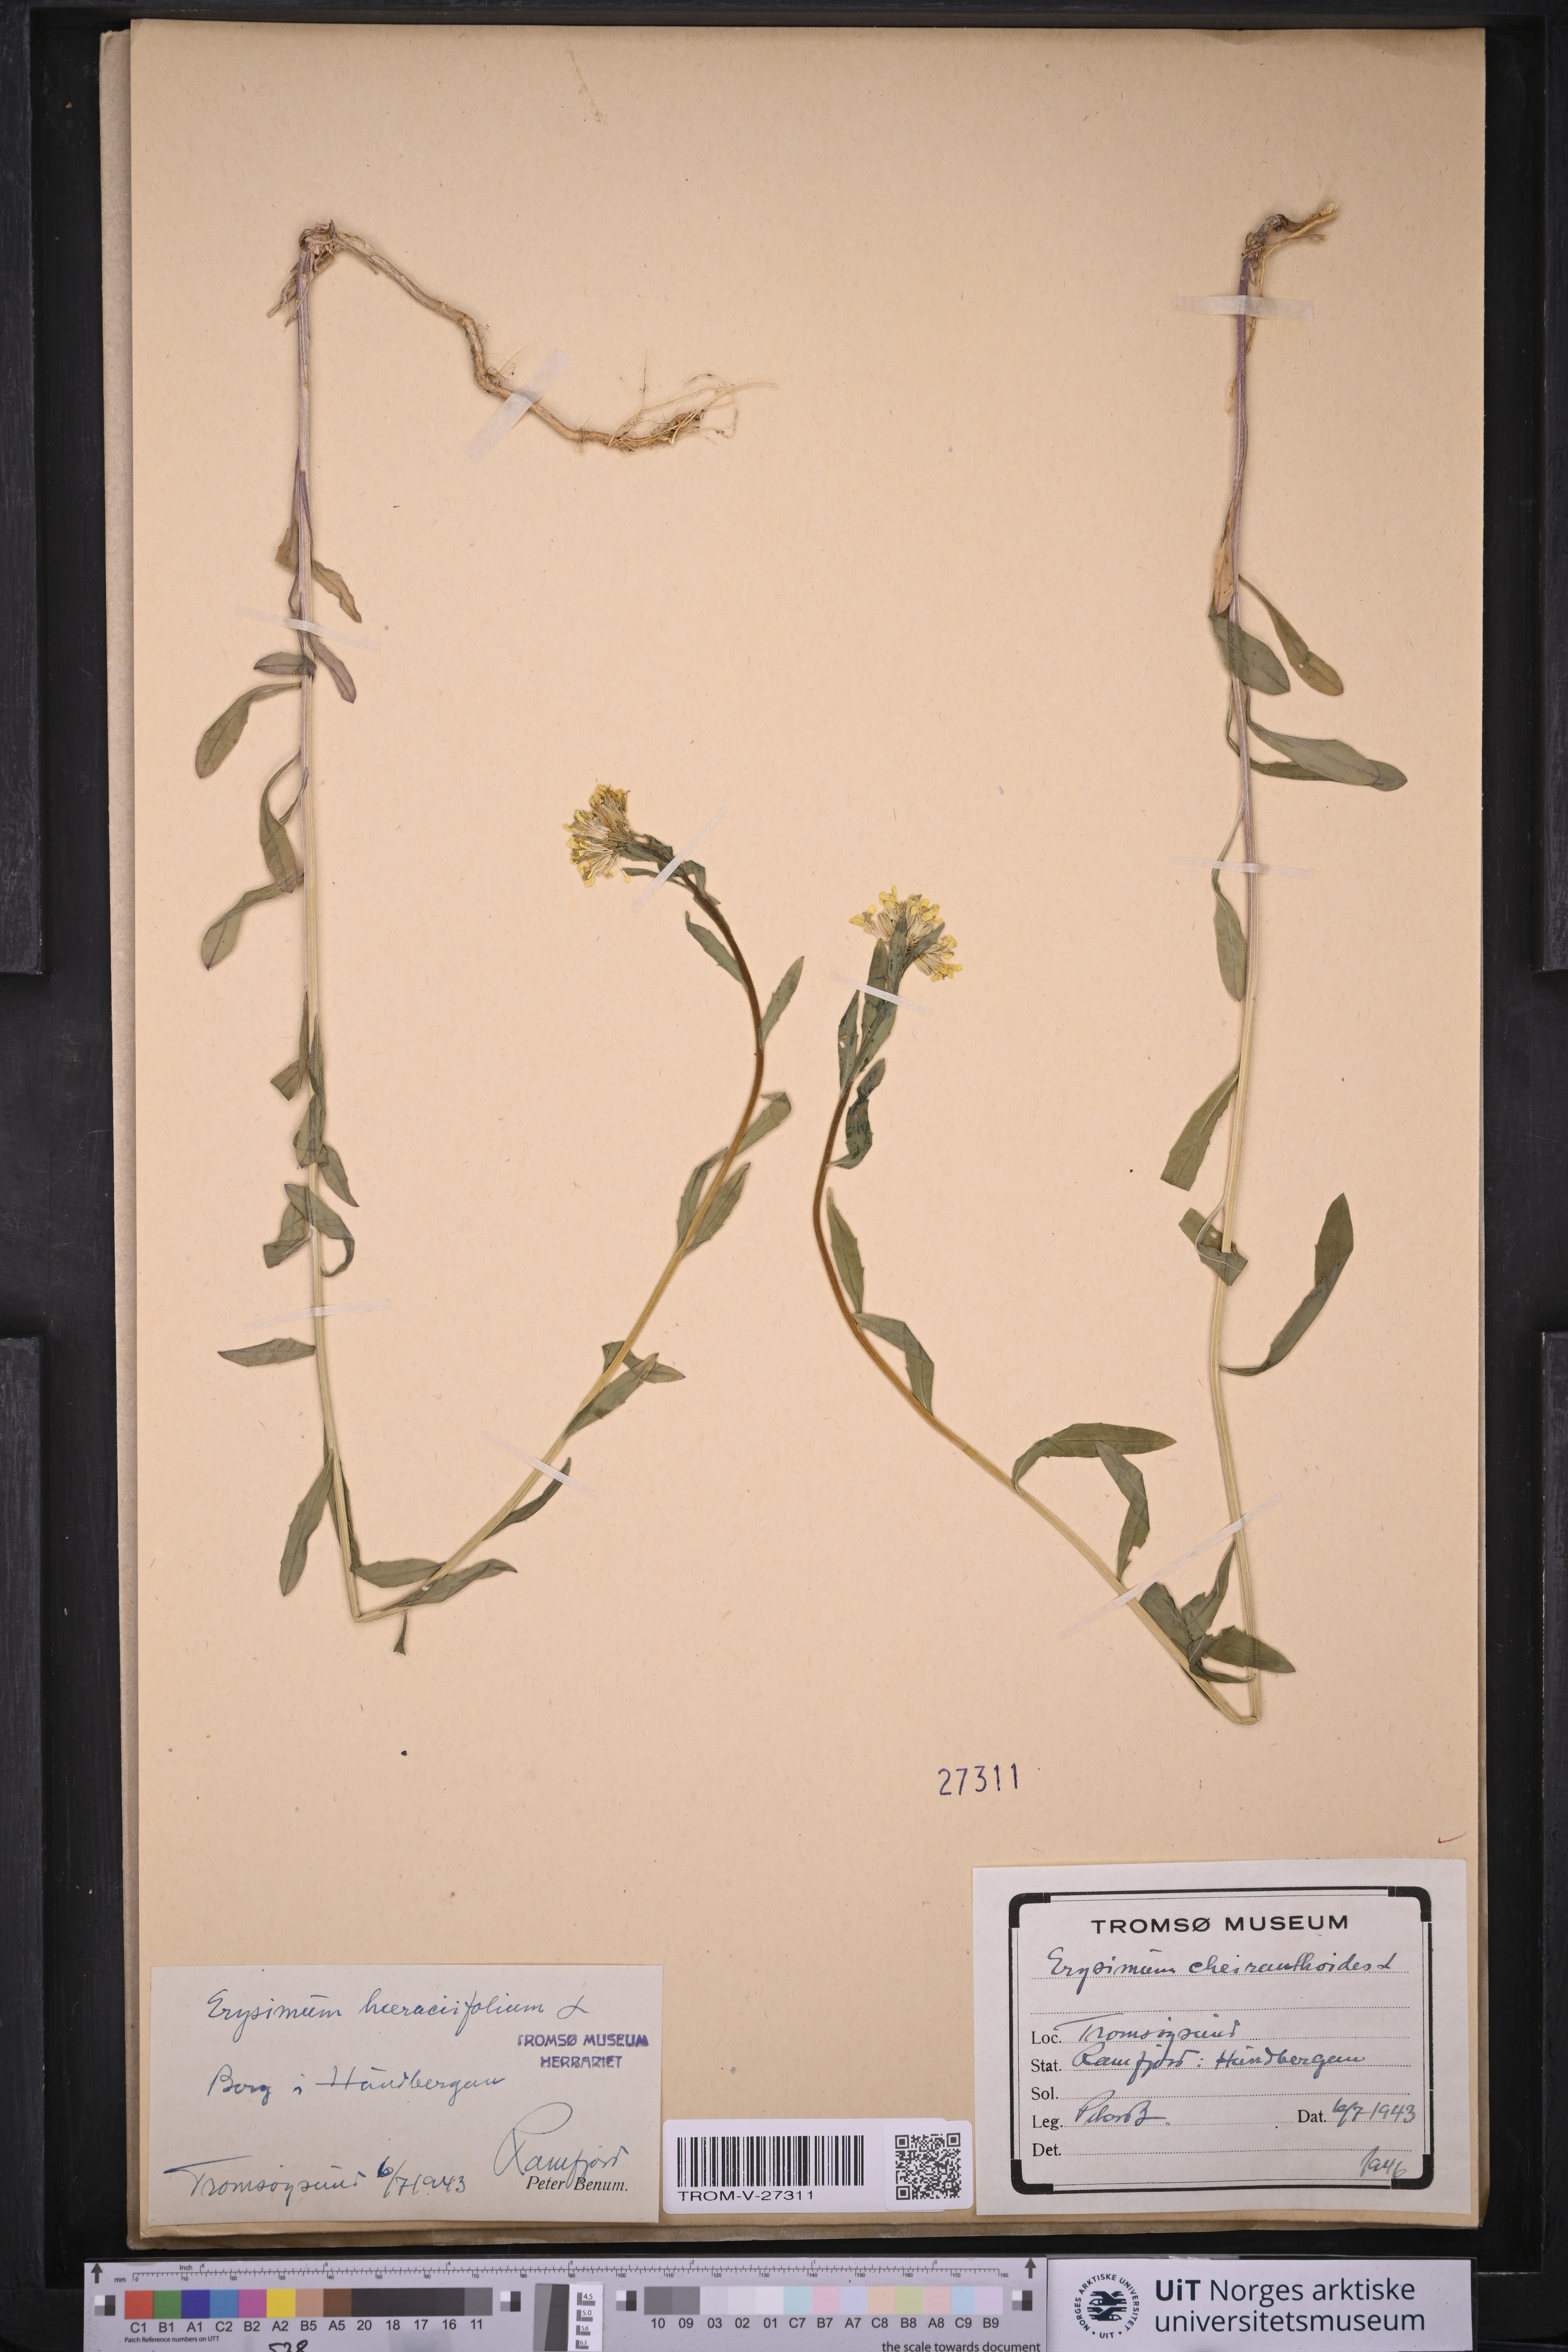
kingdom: Plantae
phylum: Tracheophyta
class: Magnoliopsida
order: Brassicales
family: Brassicaceae
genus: Erysimum
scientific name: Erysimum virgatum
